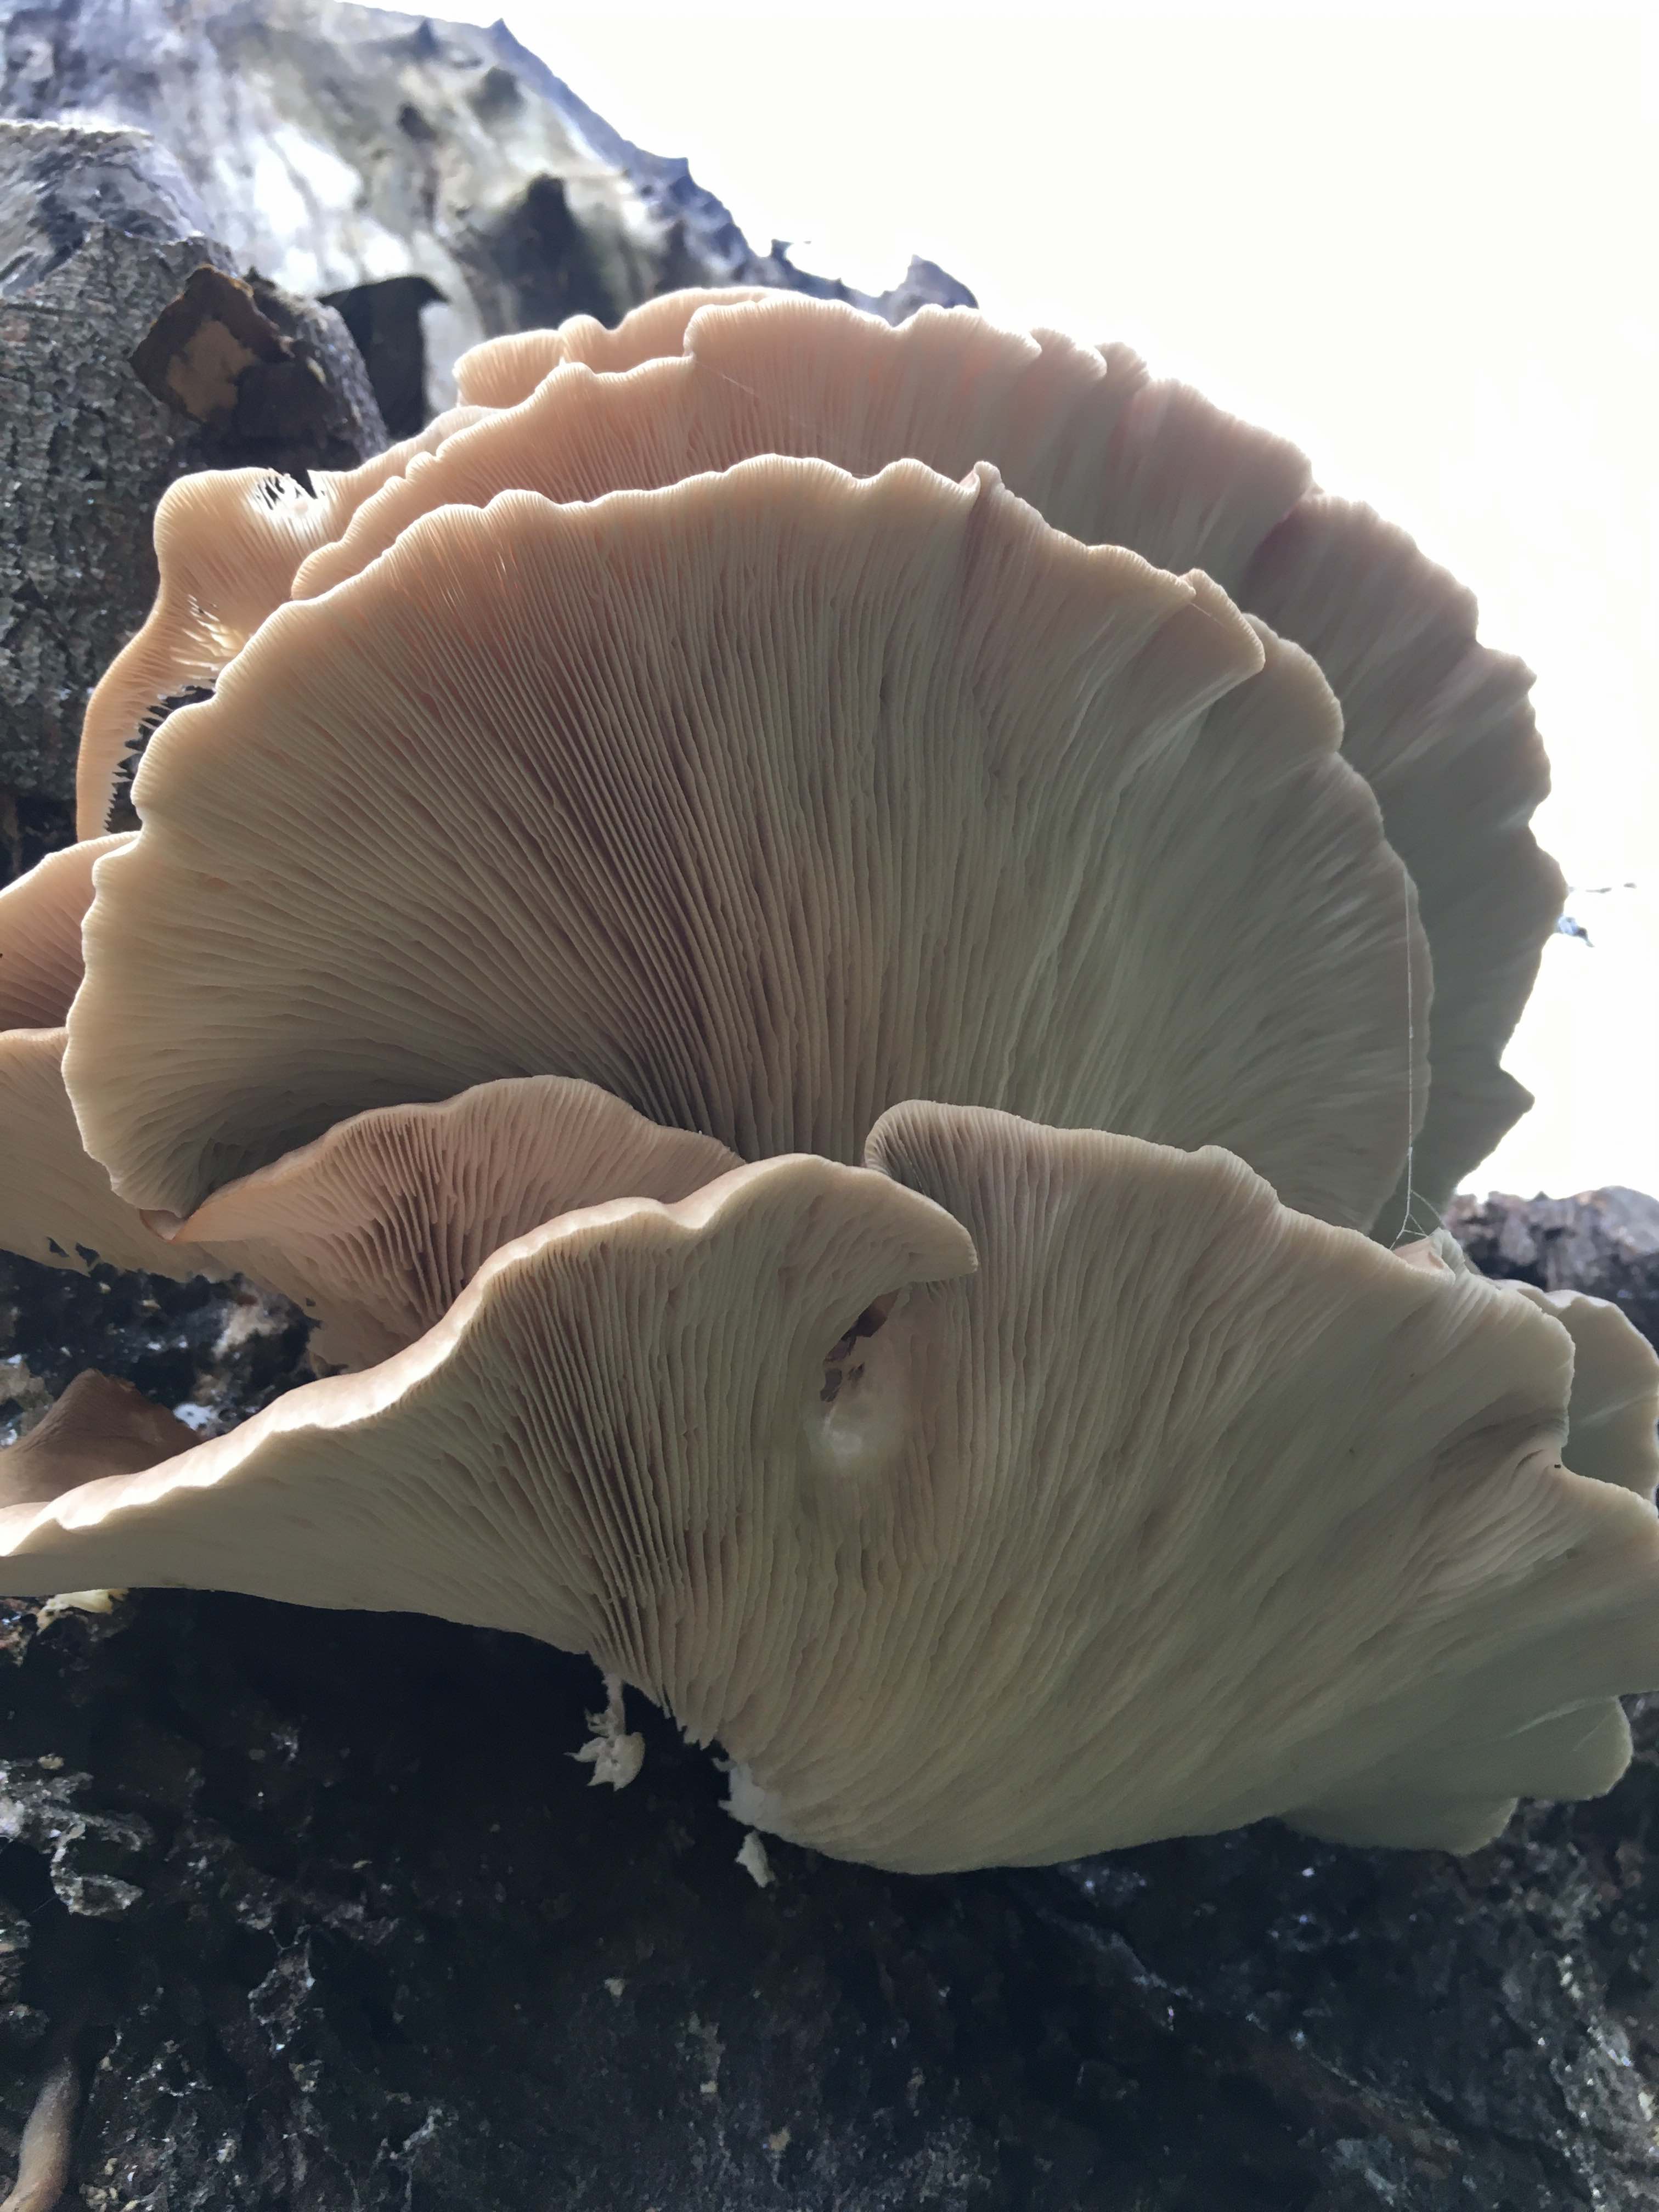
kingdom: Fungi
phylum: Basidiomycota
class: Agaricomycetes
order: Agaricales
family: Pleurotaceae
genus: Pleurotus
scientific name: Pleurotus pulmonarius
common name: sommer-østershat
